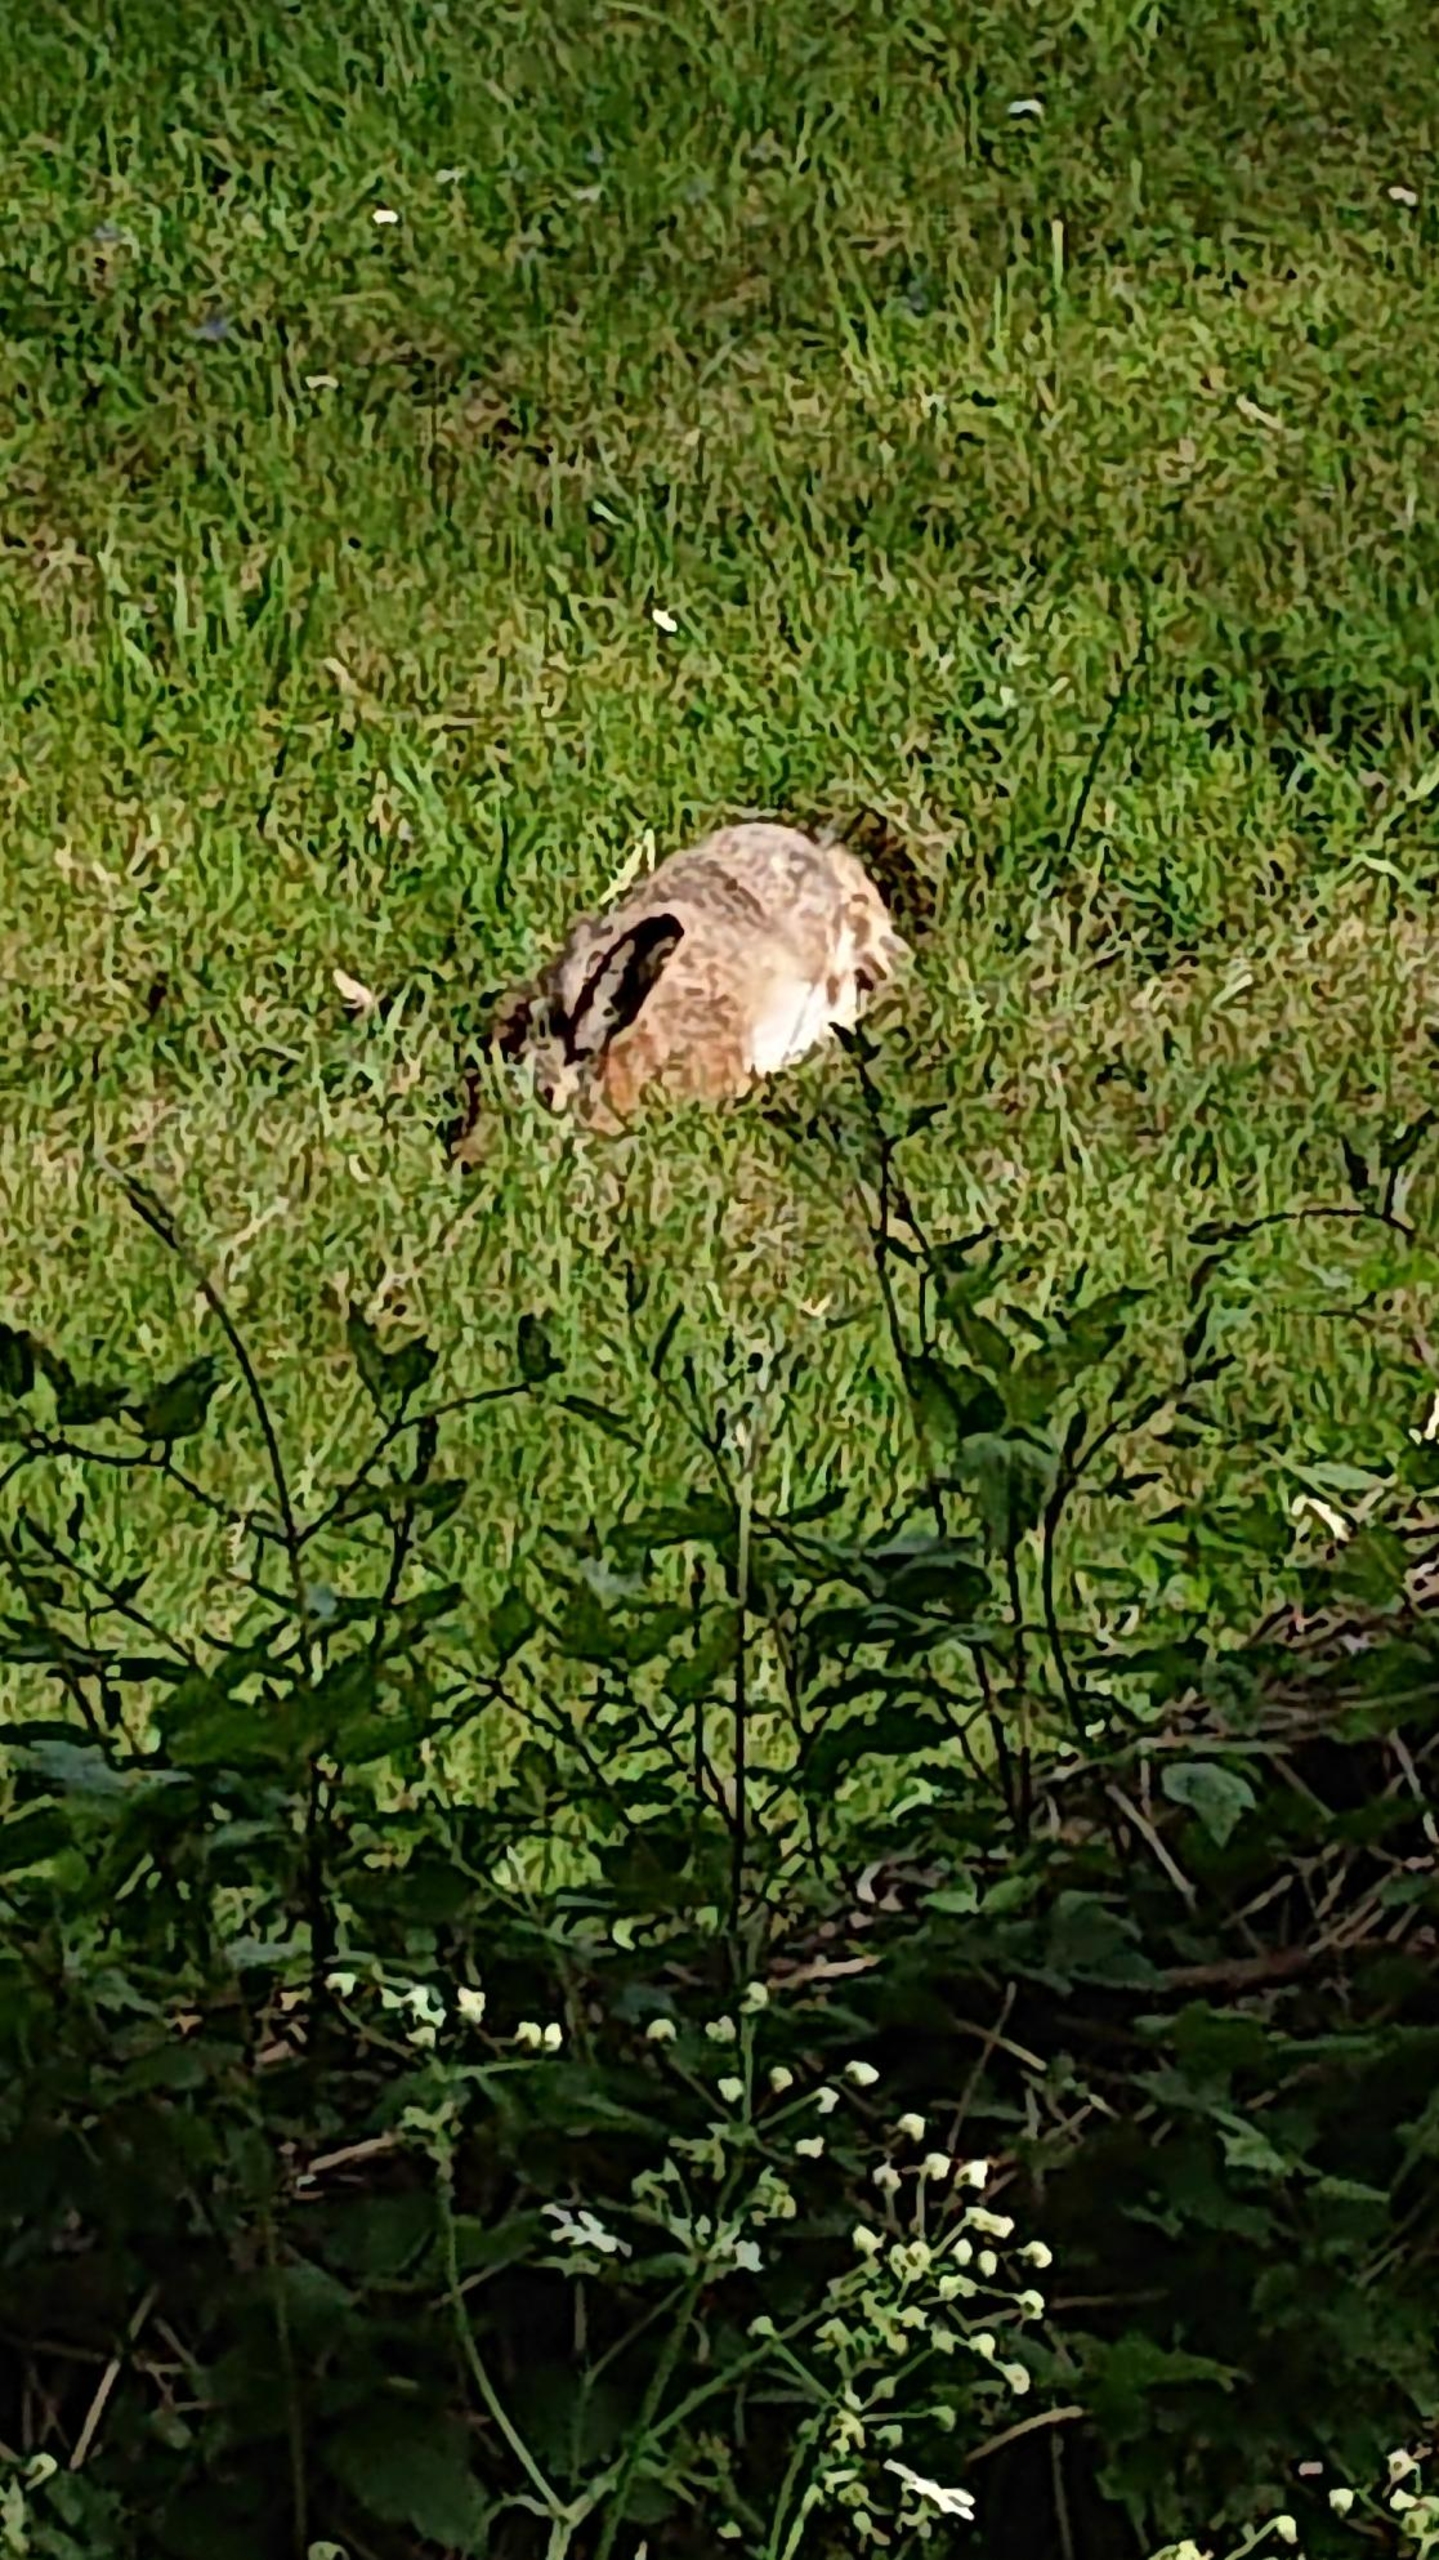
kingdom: Animalia
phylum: Chordata
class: Mammalia
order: Lagomorpha
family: Leporidae
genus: Lepus
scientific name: Lepus europaeus
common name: Hare
